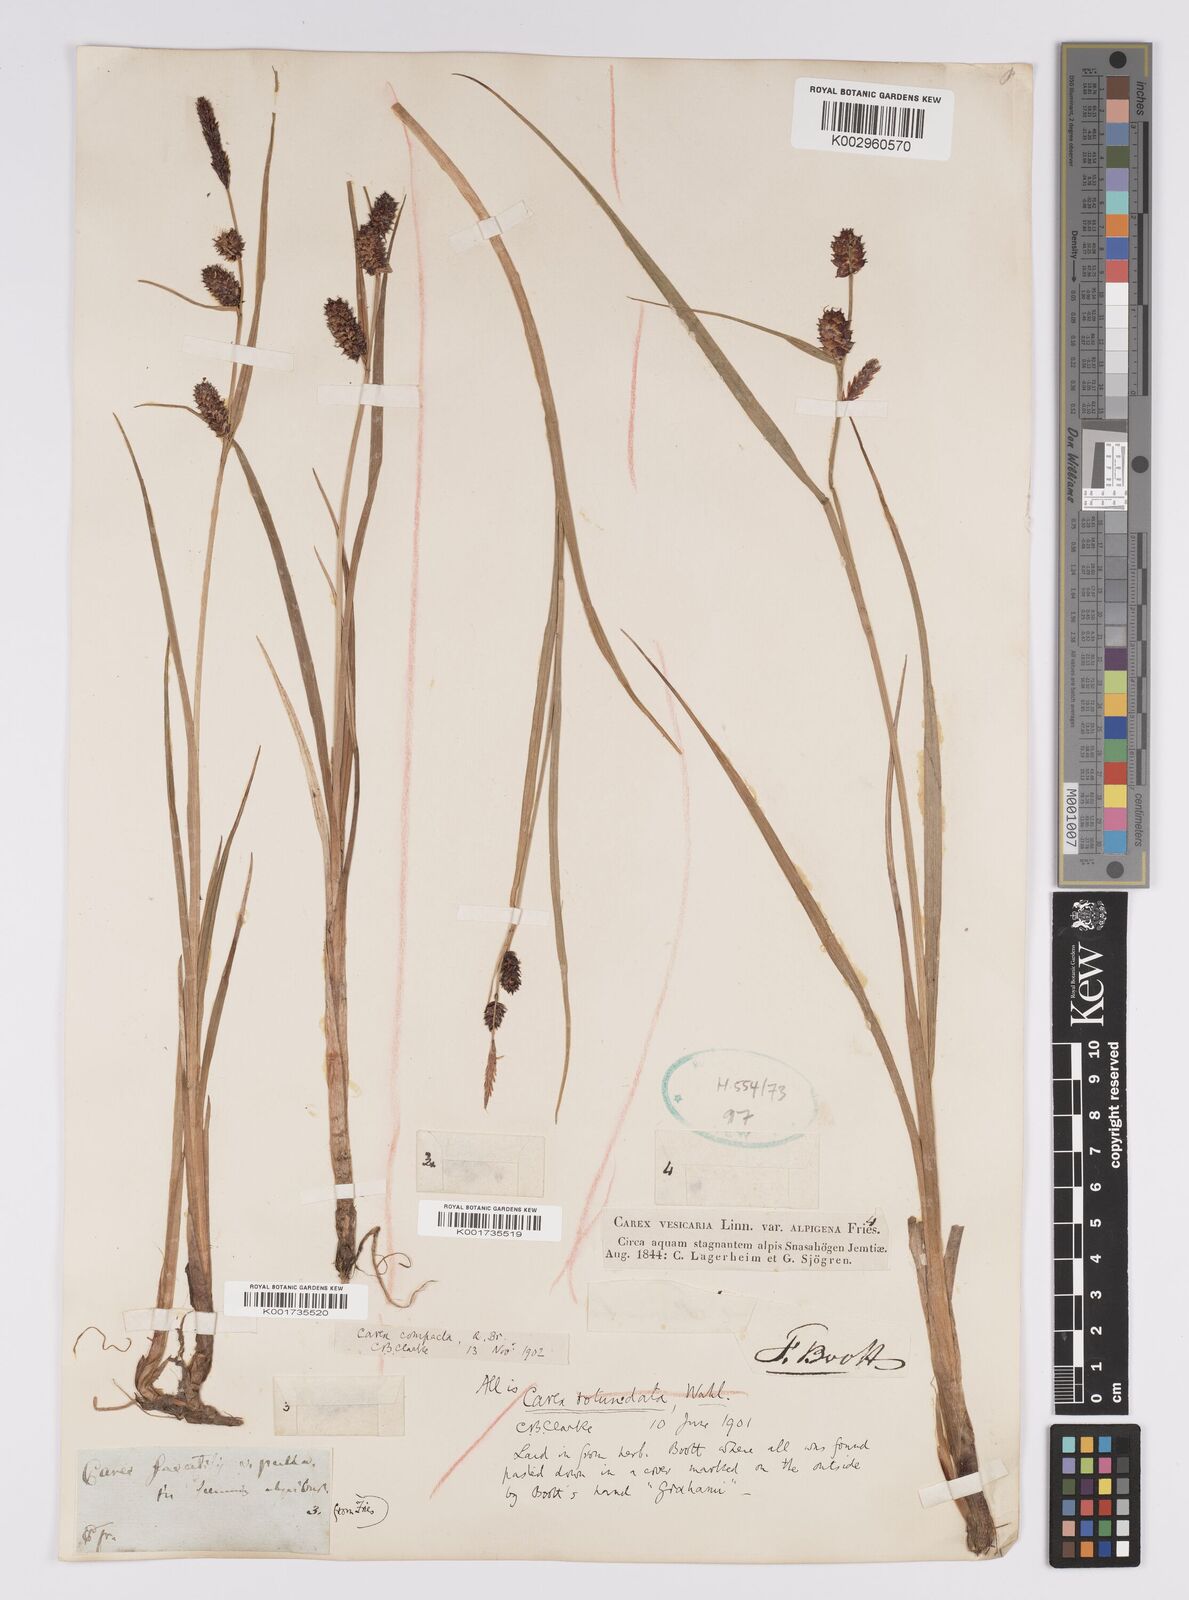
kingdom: Plantae
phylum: Tracheophyta
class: Liliopsida
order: Poales
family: Cyperaceae
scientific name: Cyperaceae
